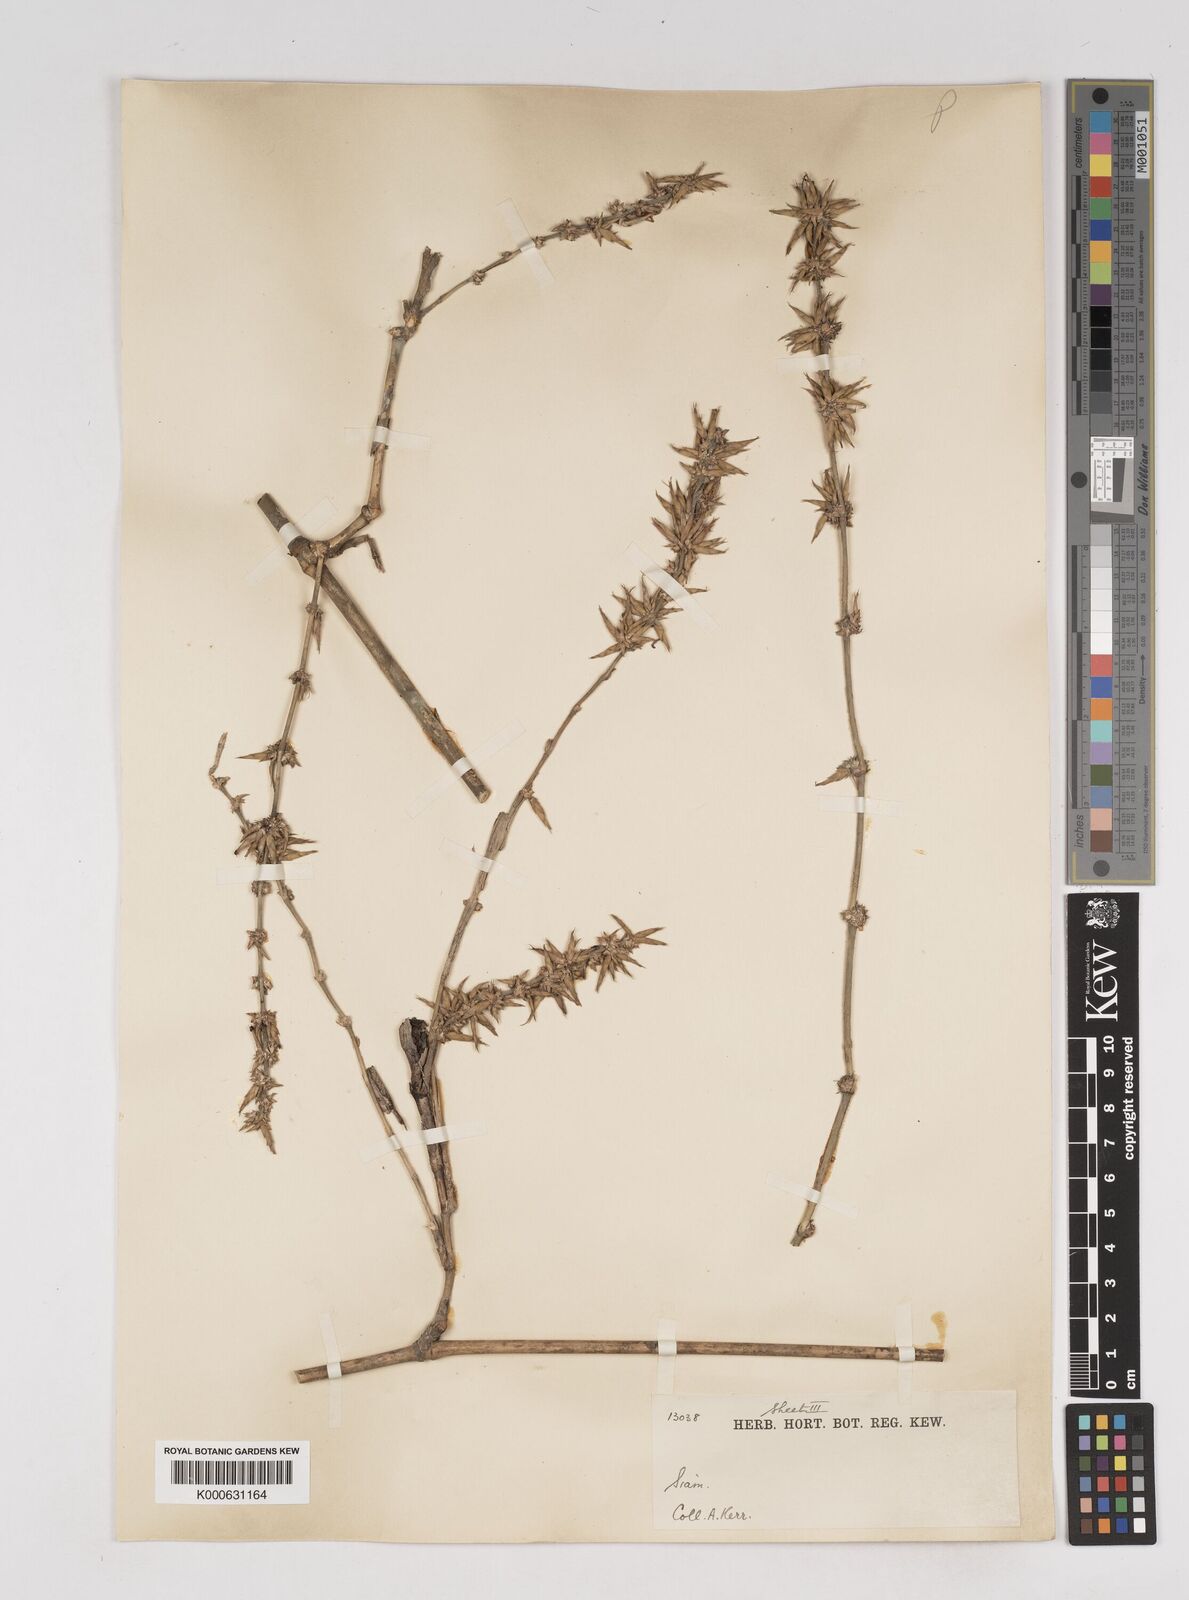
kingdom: Plantae
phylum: Tracheophyta
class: Liliopsida
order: Poales
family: Poaceae
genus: Gigantochloa
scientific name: Gigantochloa
